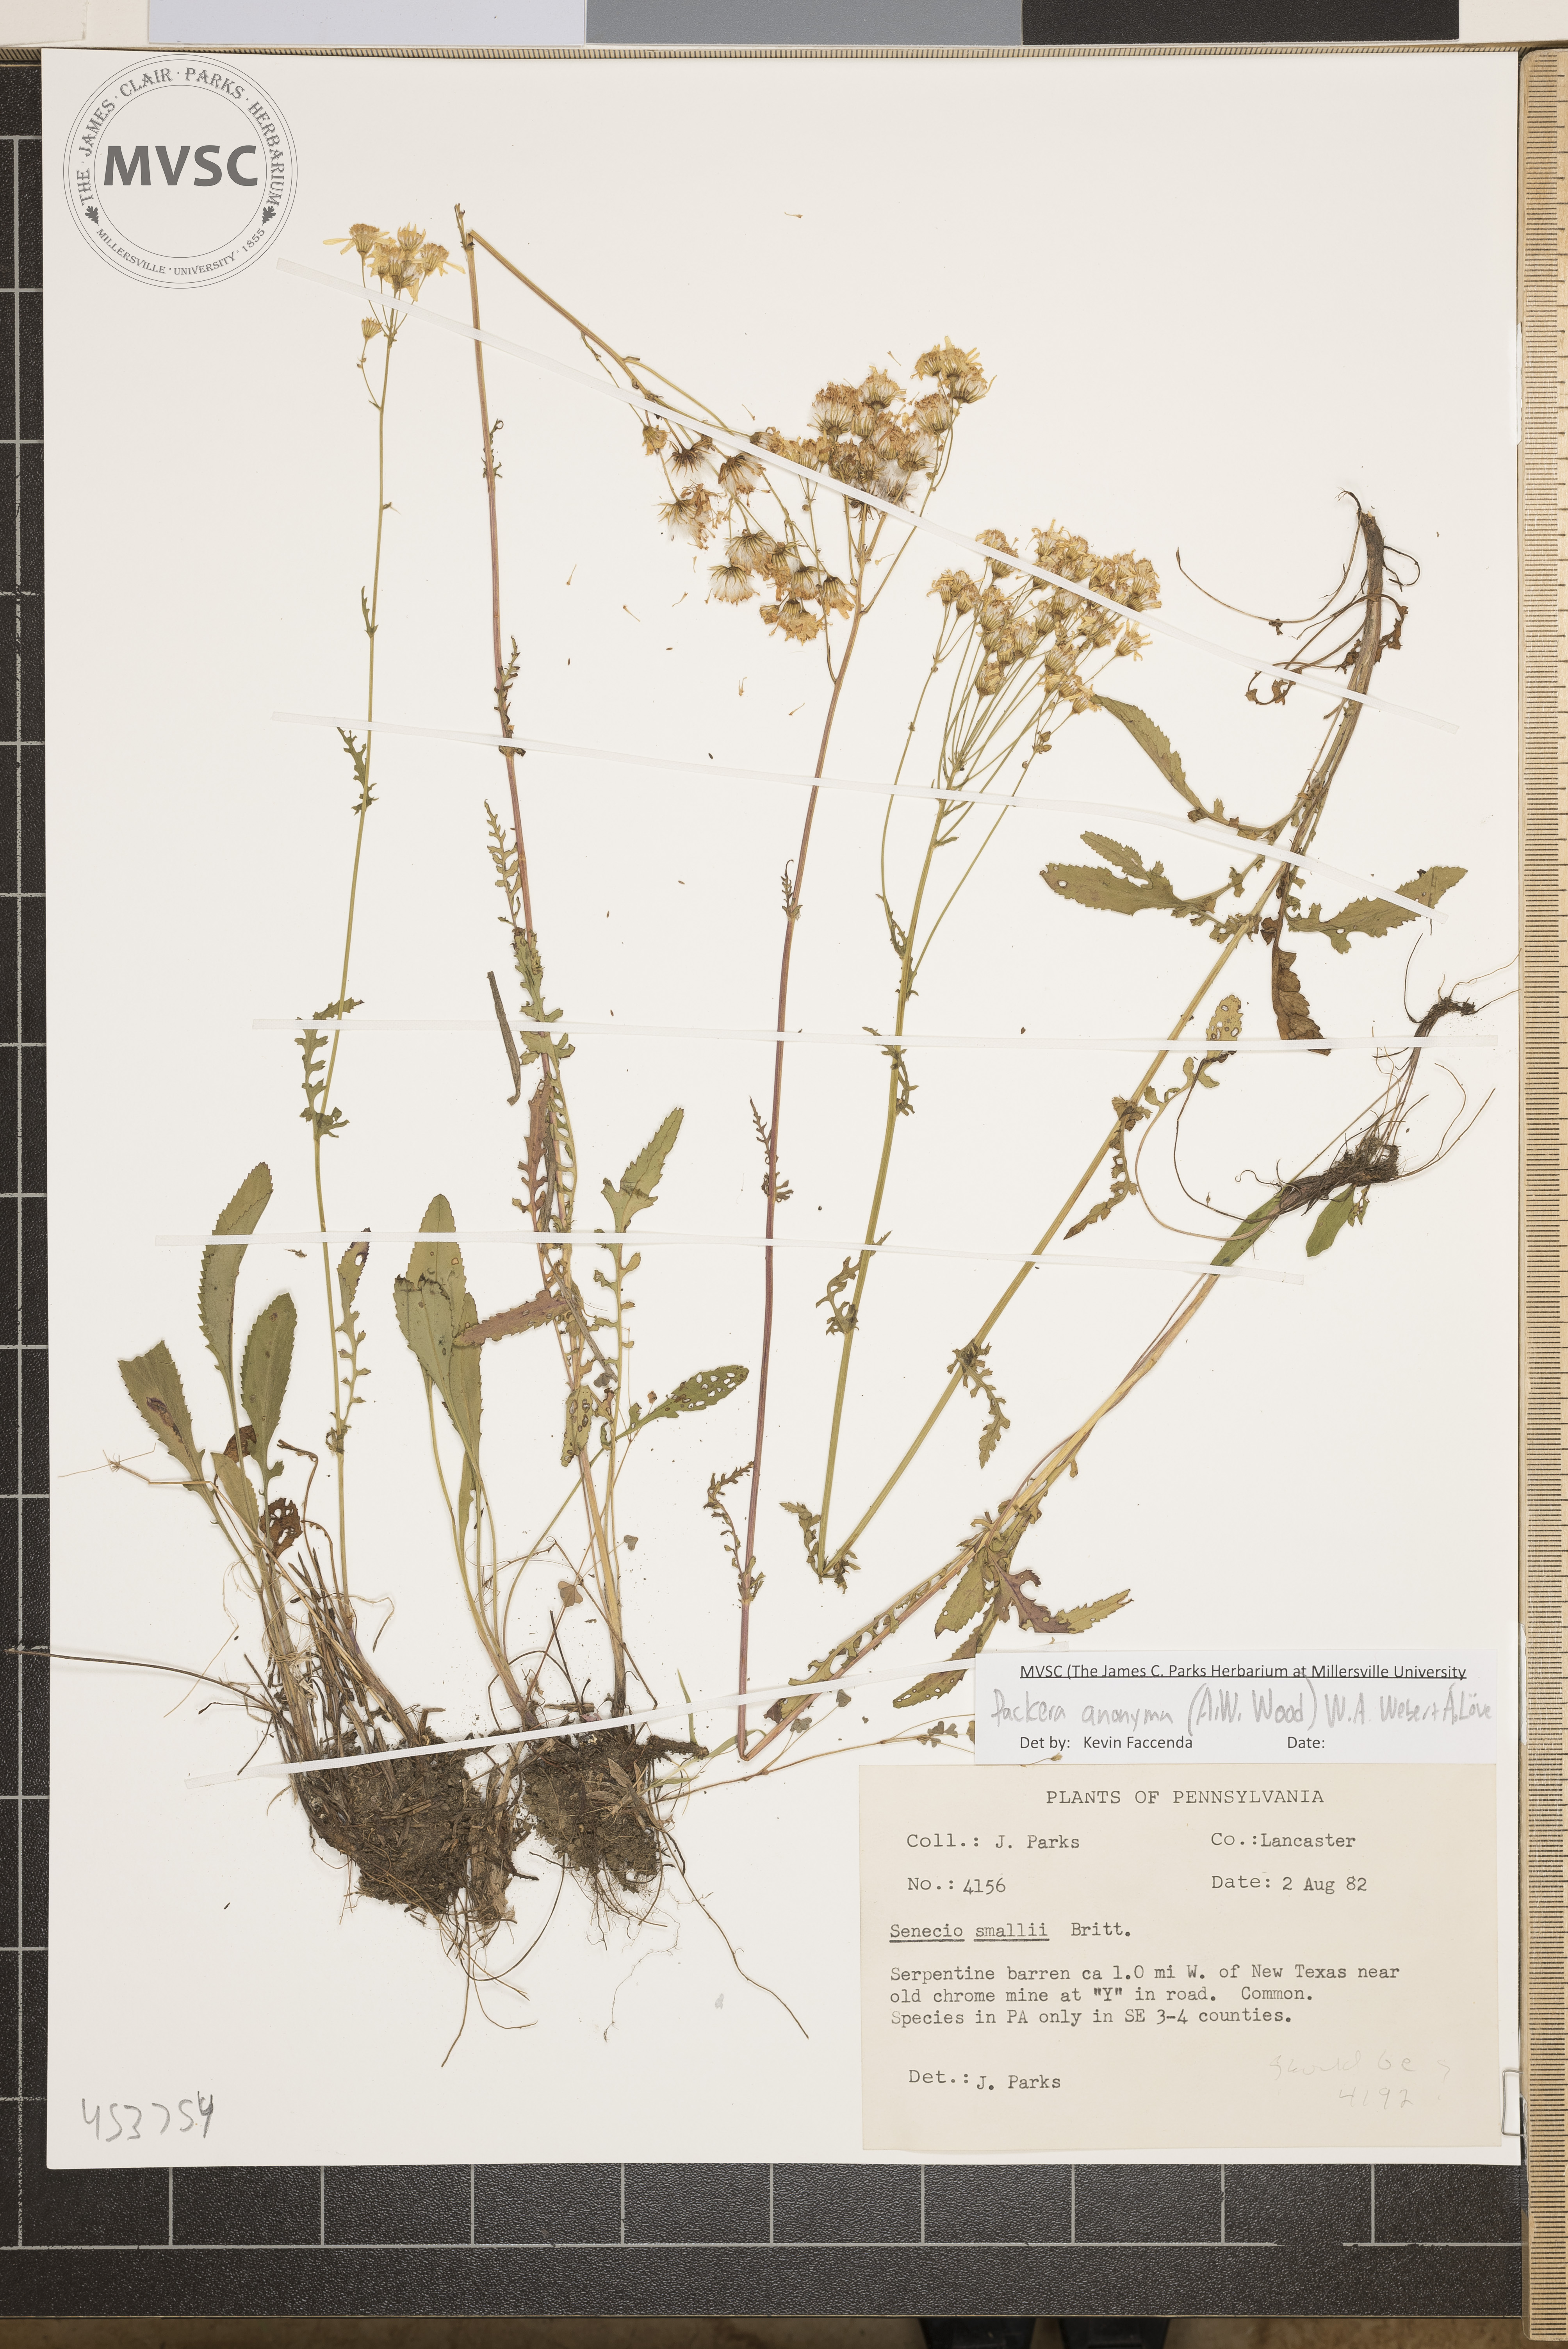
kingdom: Plantae
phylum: Tracheophyta
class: Magnoliopsida
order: Asterales
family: Asteraceae
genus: Packera
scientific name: Packera anonyma
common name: Small ragwort
